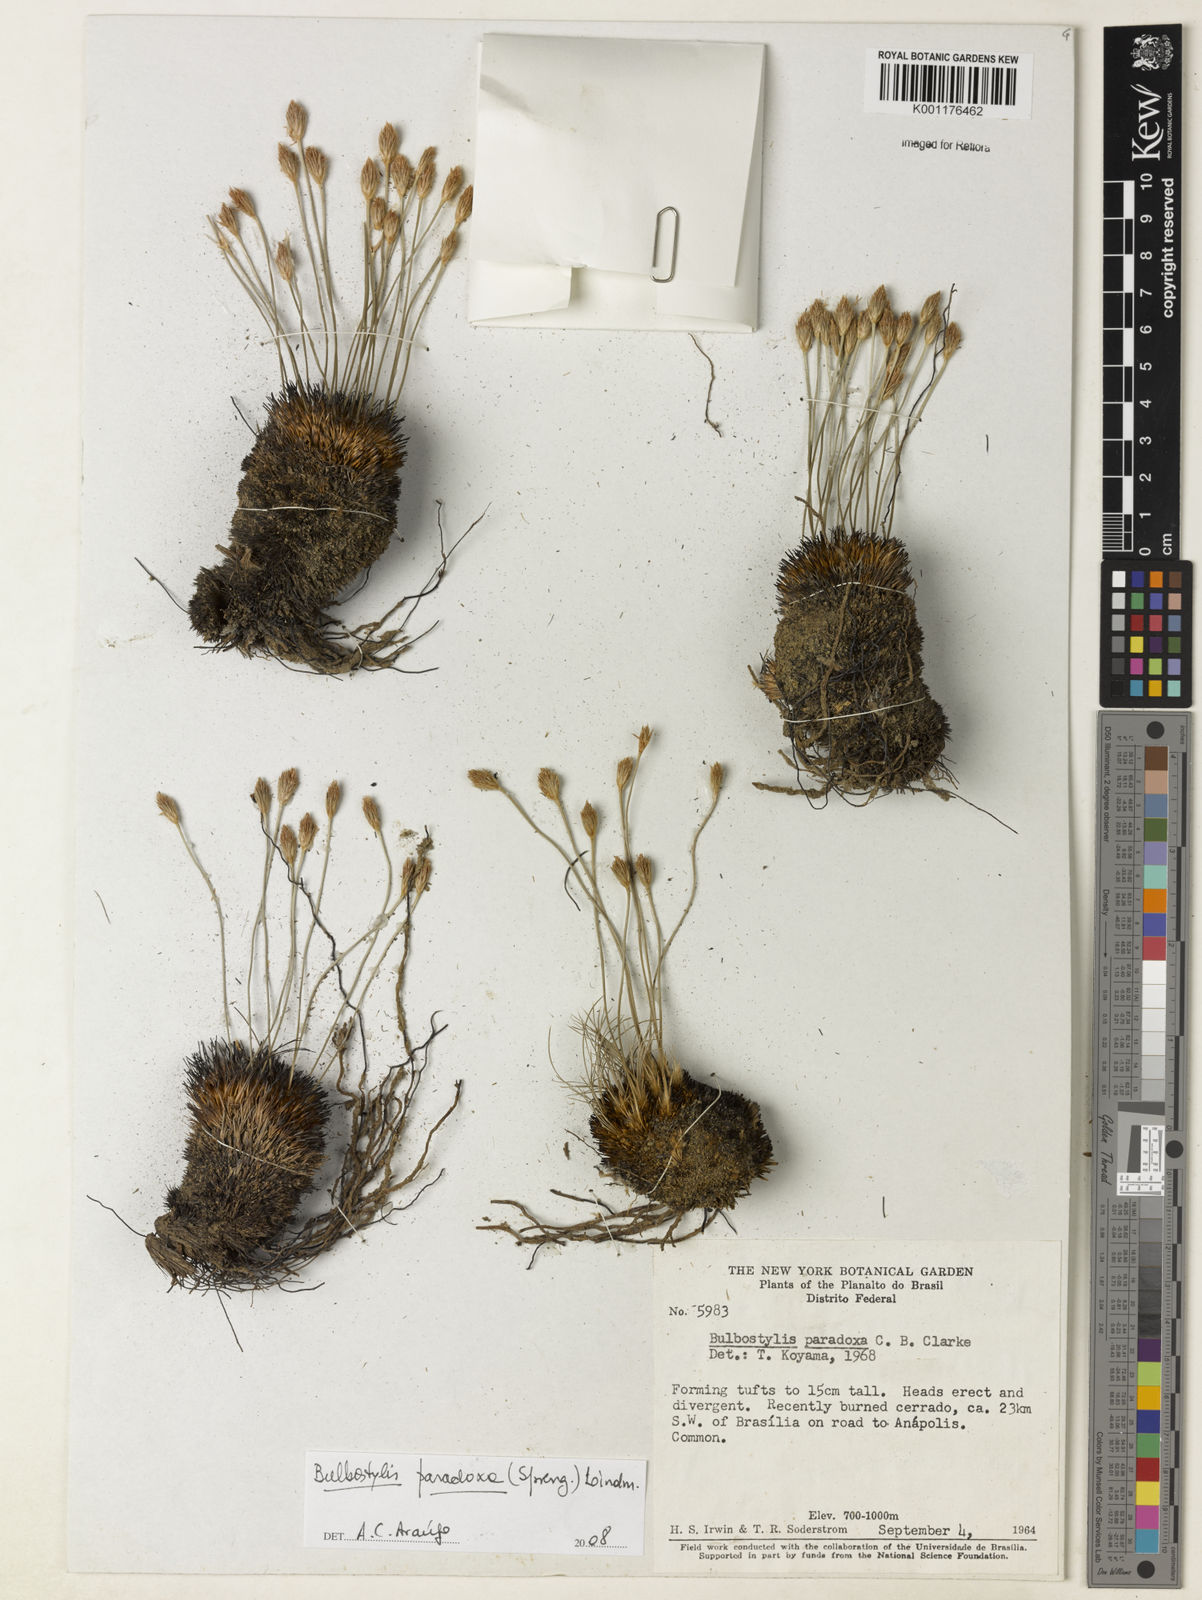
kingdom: Plantae
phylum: Tracheophyta
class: Liliopsida
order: Poales
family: Cyperaceae
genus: Bulbostylis
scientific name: Bulbostylis paradoxa
